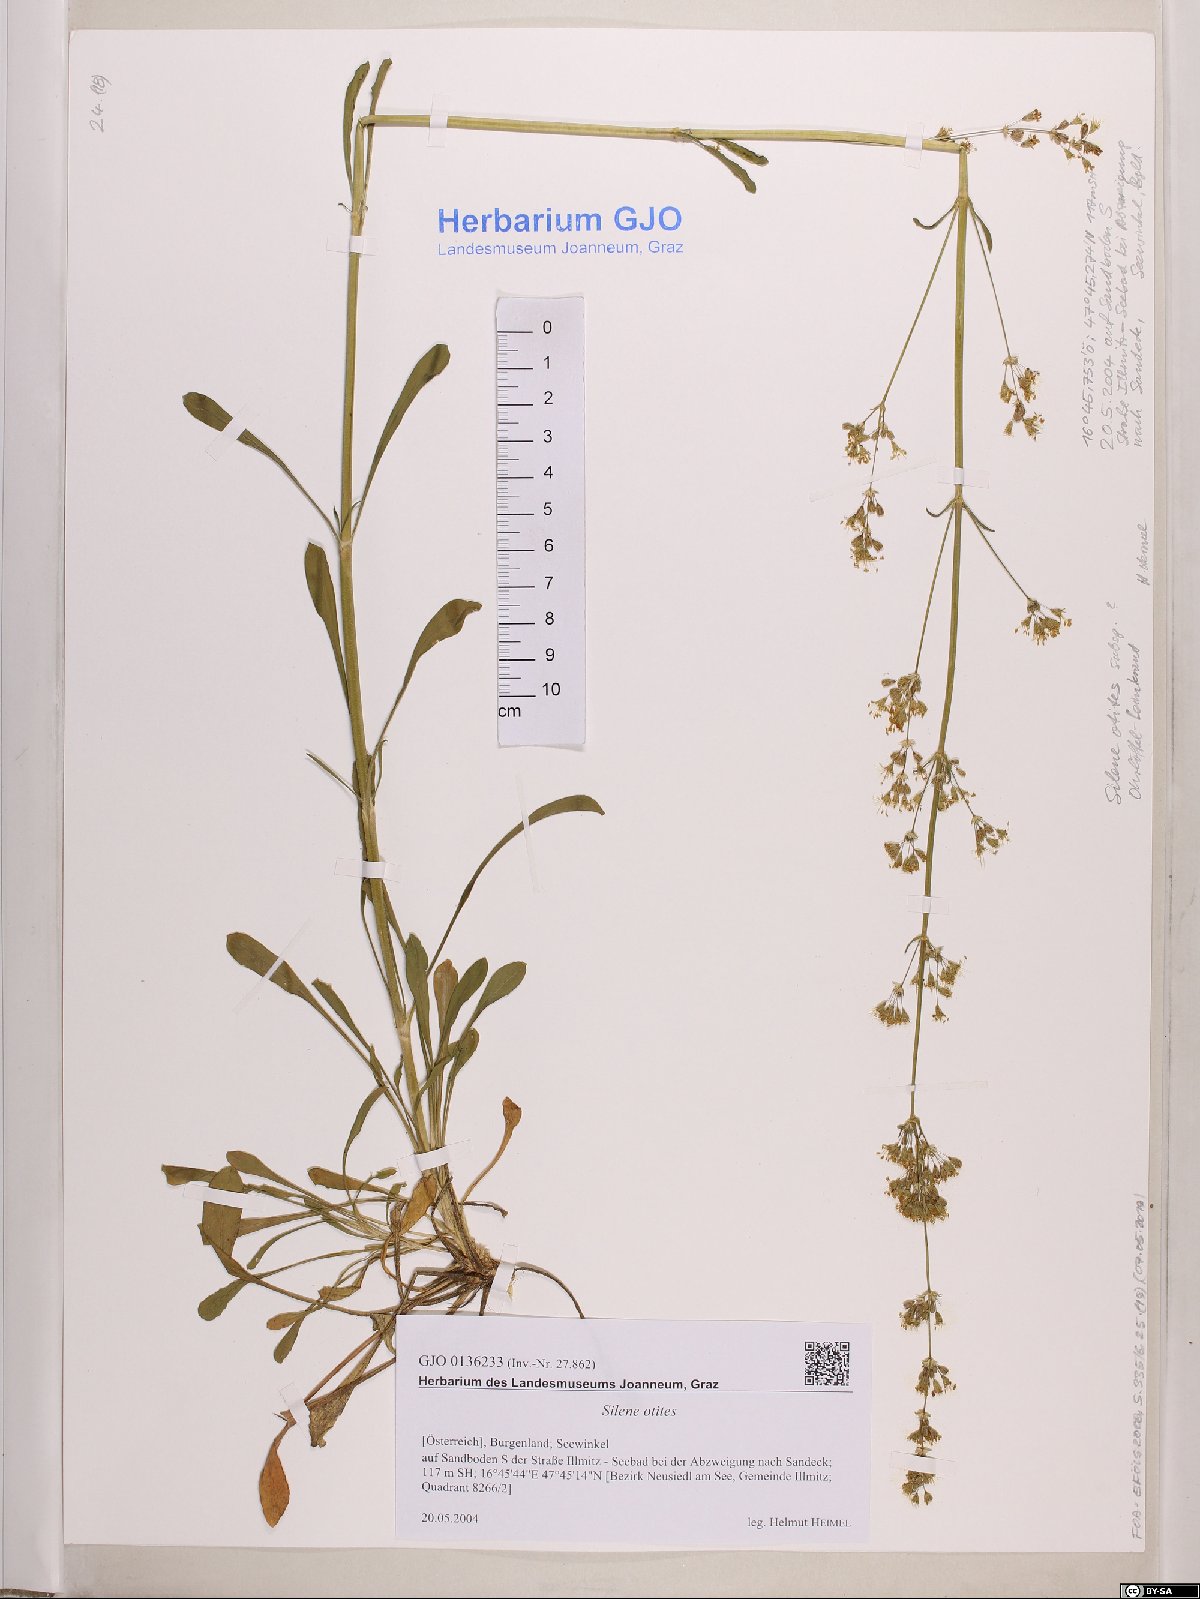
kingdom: Plantae
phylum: Tracheophyta
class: Magnoliopsida
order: Caryophyllales
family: Caryophyllaceae
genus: Silene
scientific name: Silene otites
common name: Spanish catchfly
